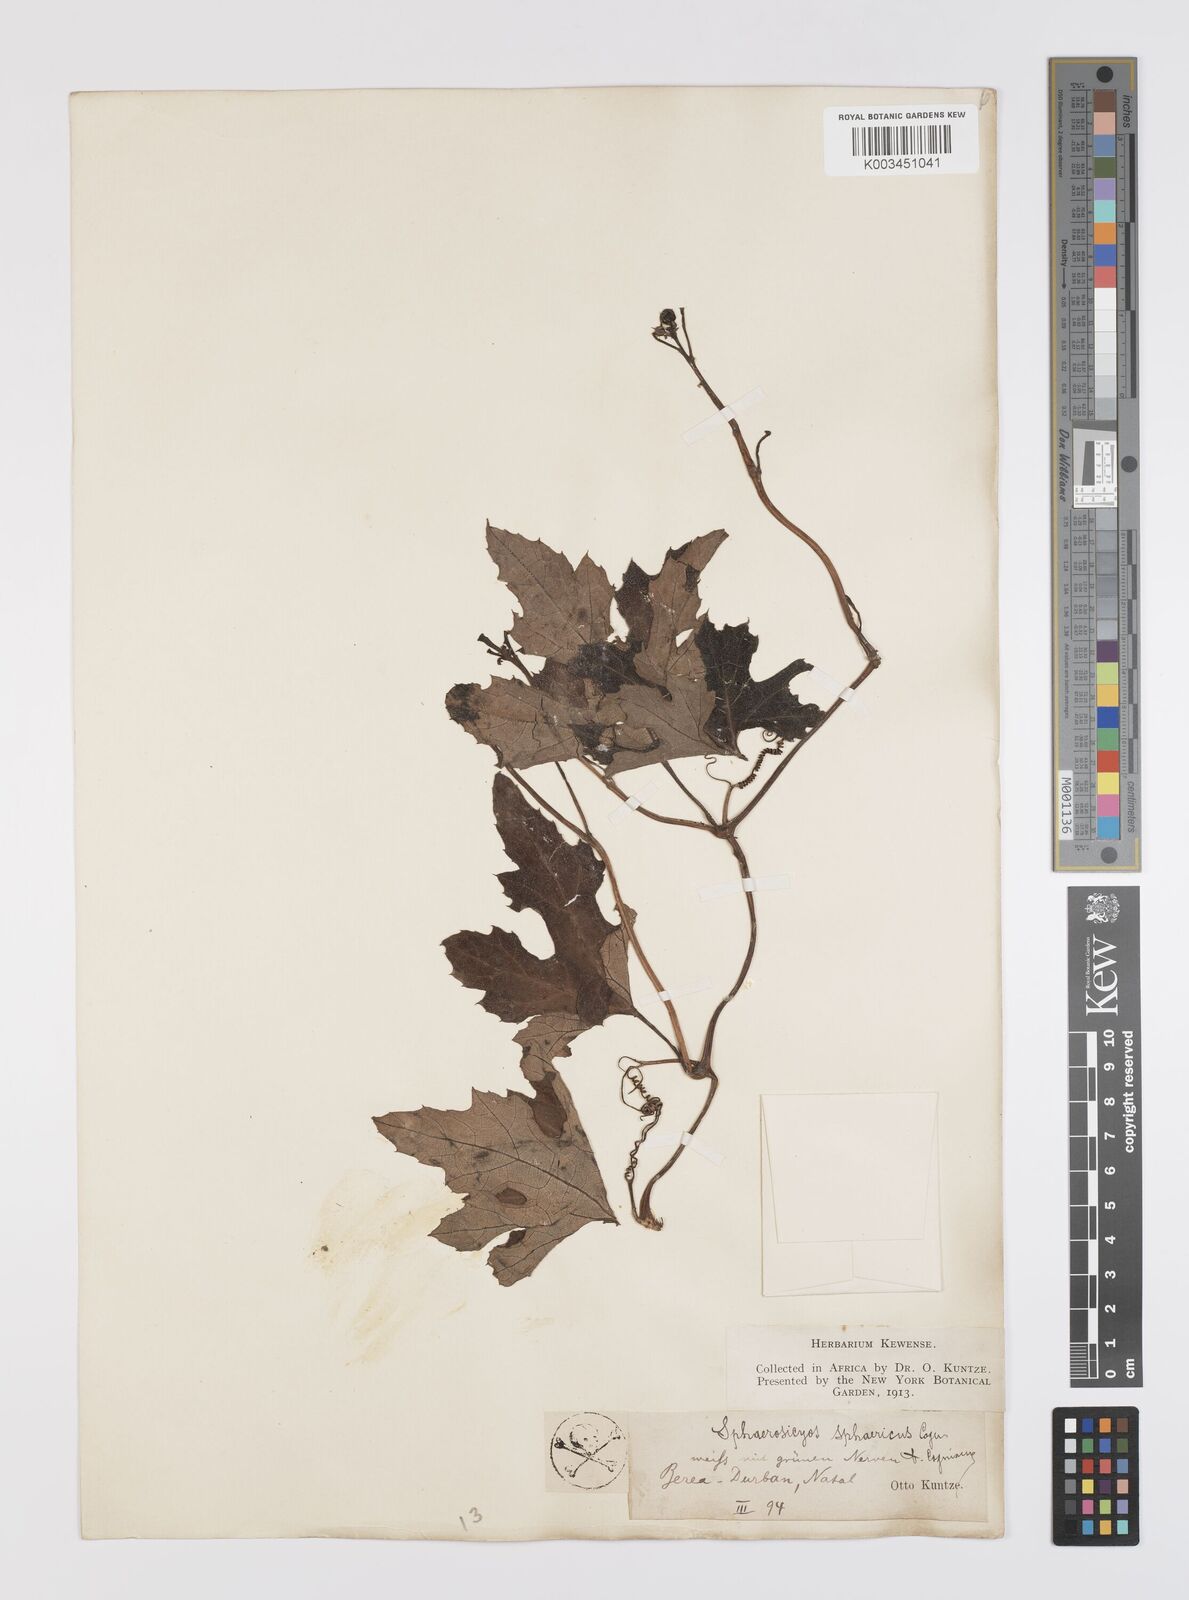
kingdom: Plantae
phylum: Tracheophyta
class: Magnoliopsida
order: Cucurbitales
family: Cucurbitaceae
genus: Lagenaria
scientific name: Lagenaria sphaerica
